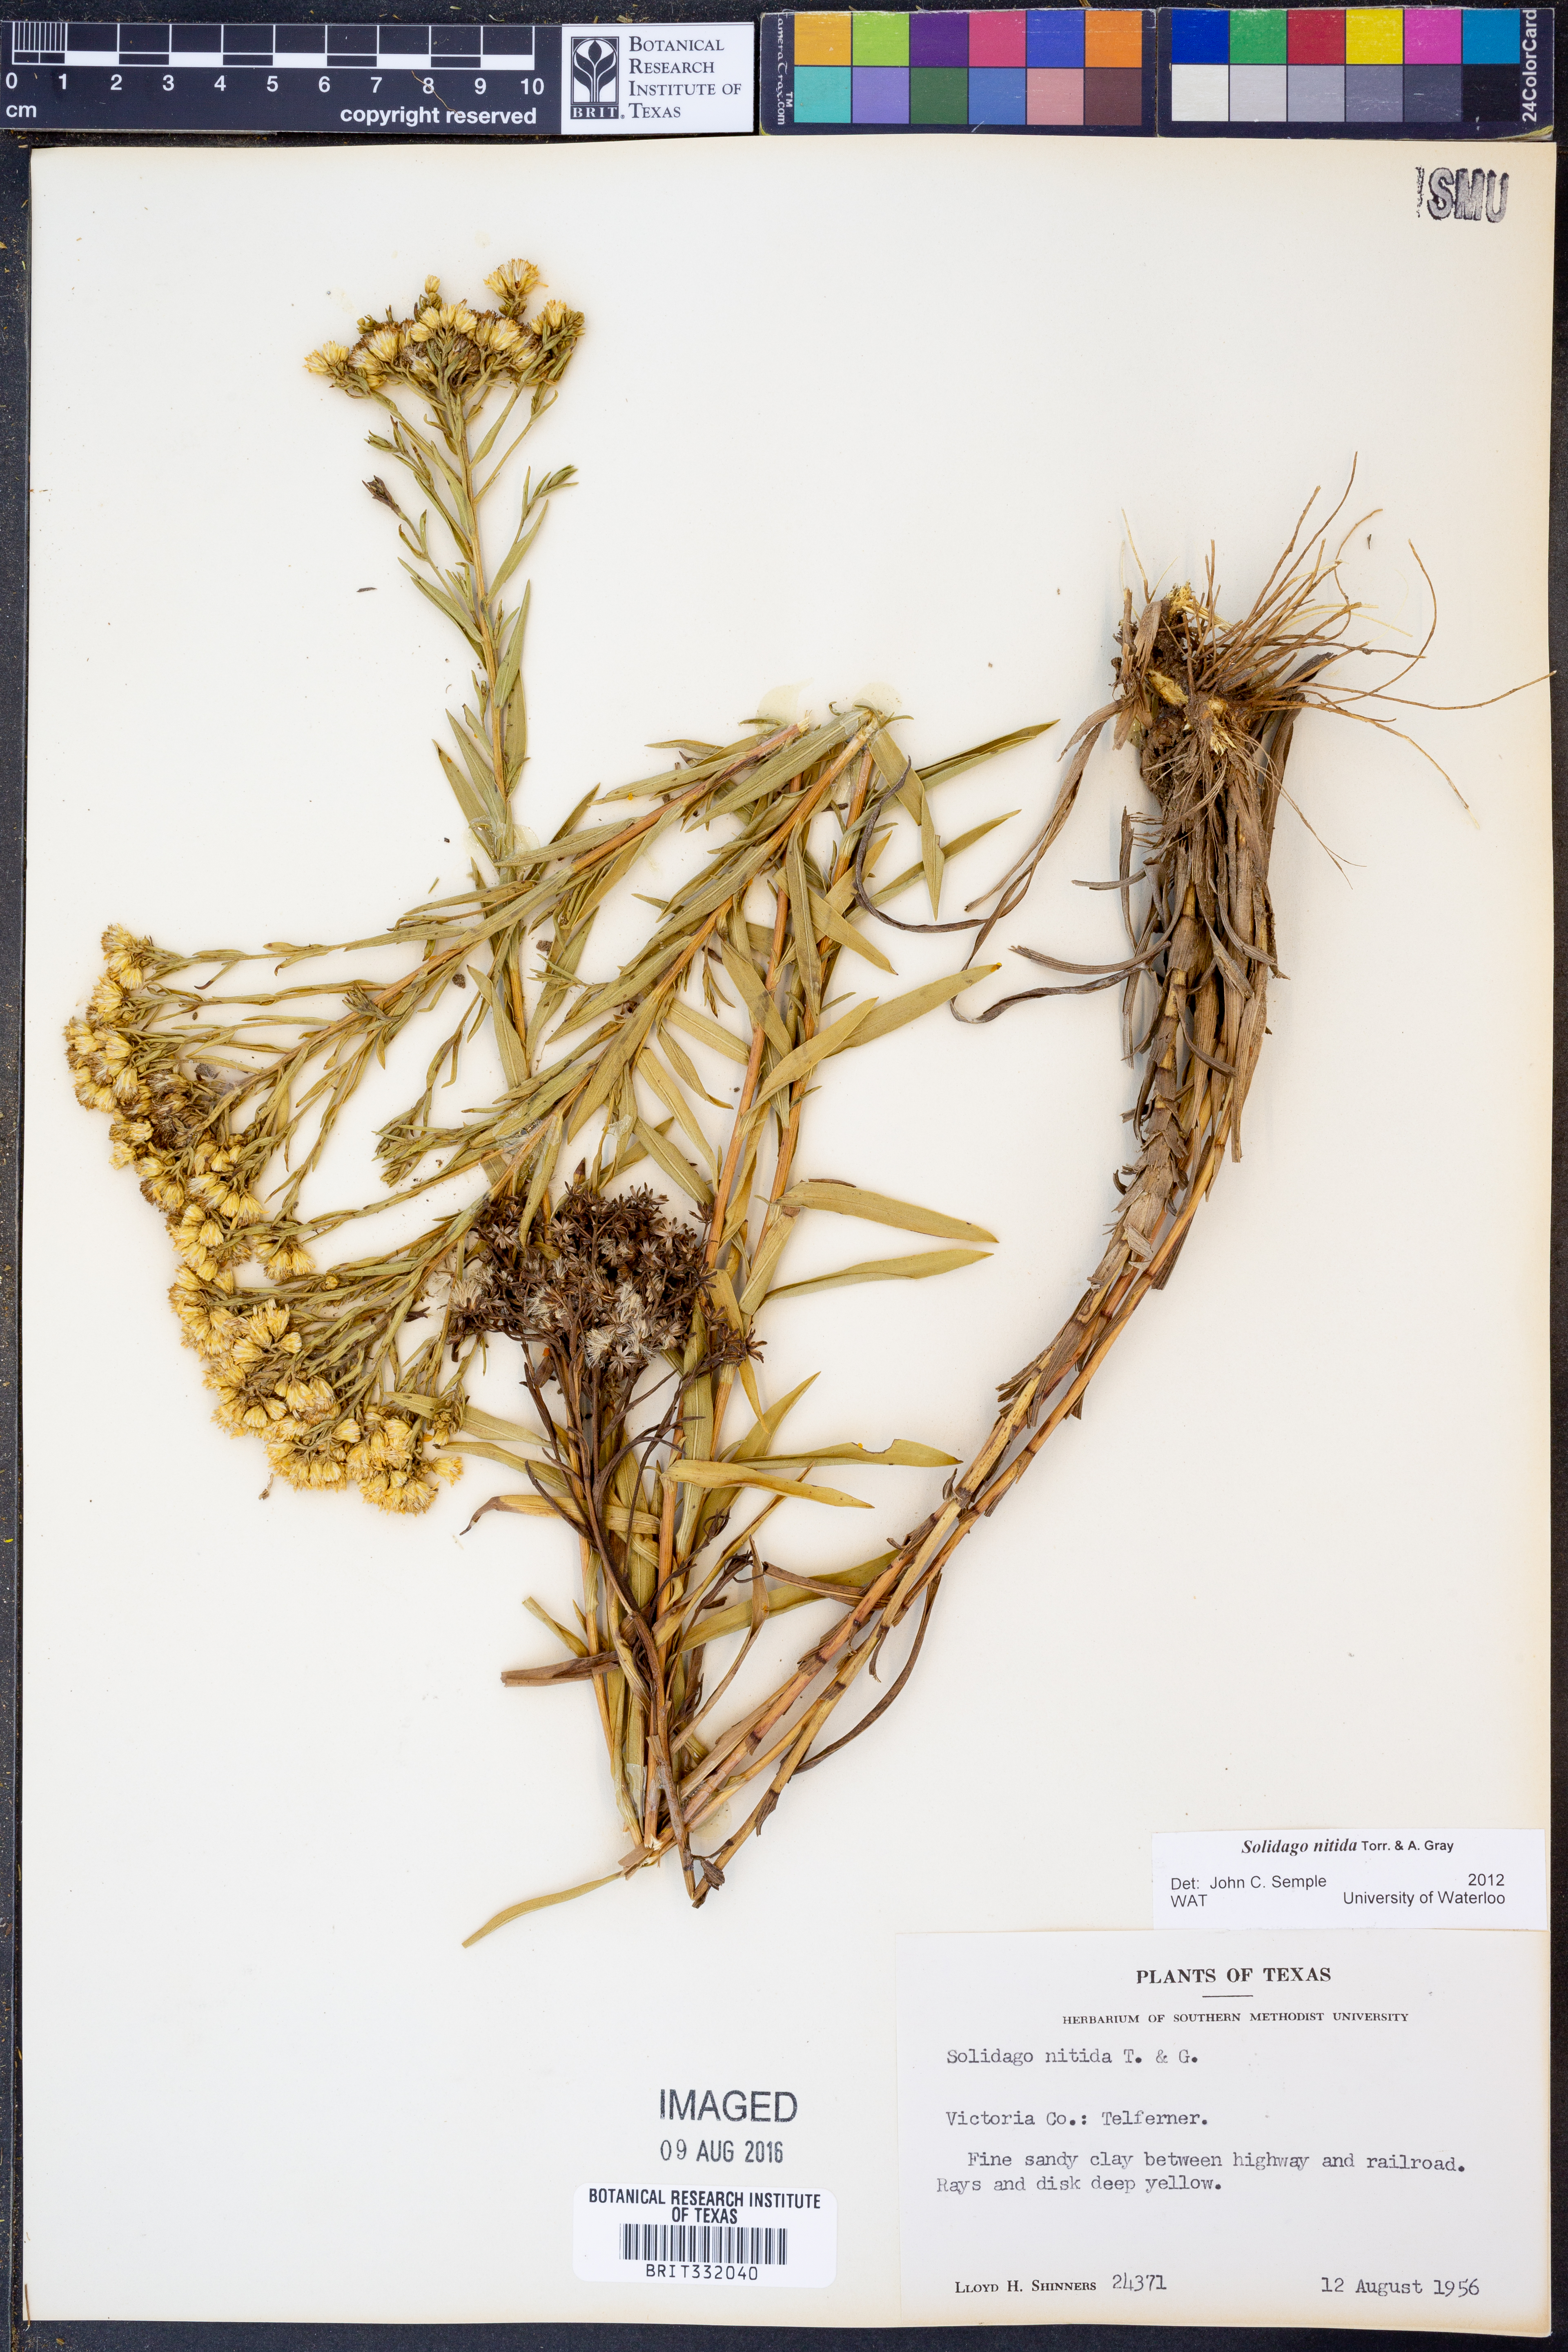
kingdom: Plantae
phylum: Tracheophyta
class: Magnoliopsida
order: Asterales
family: Asteraceae
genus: Solidago
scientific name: Solidago nitida
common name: Shiny goldenrod
